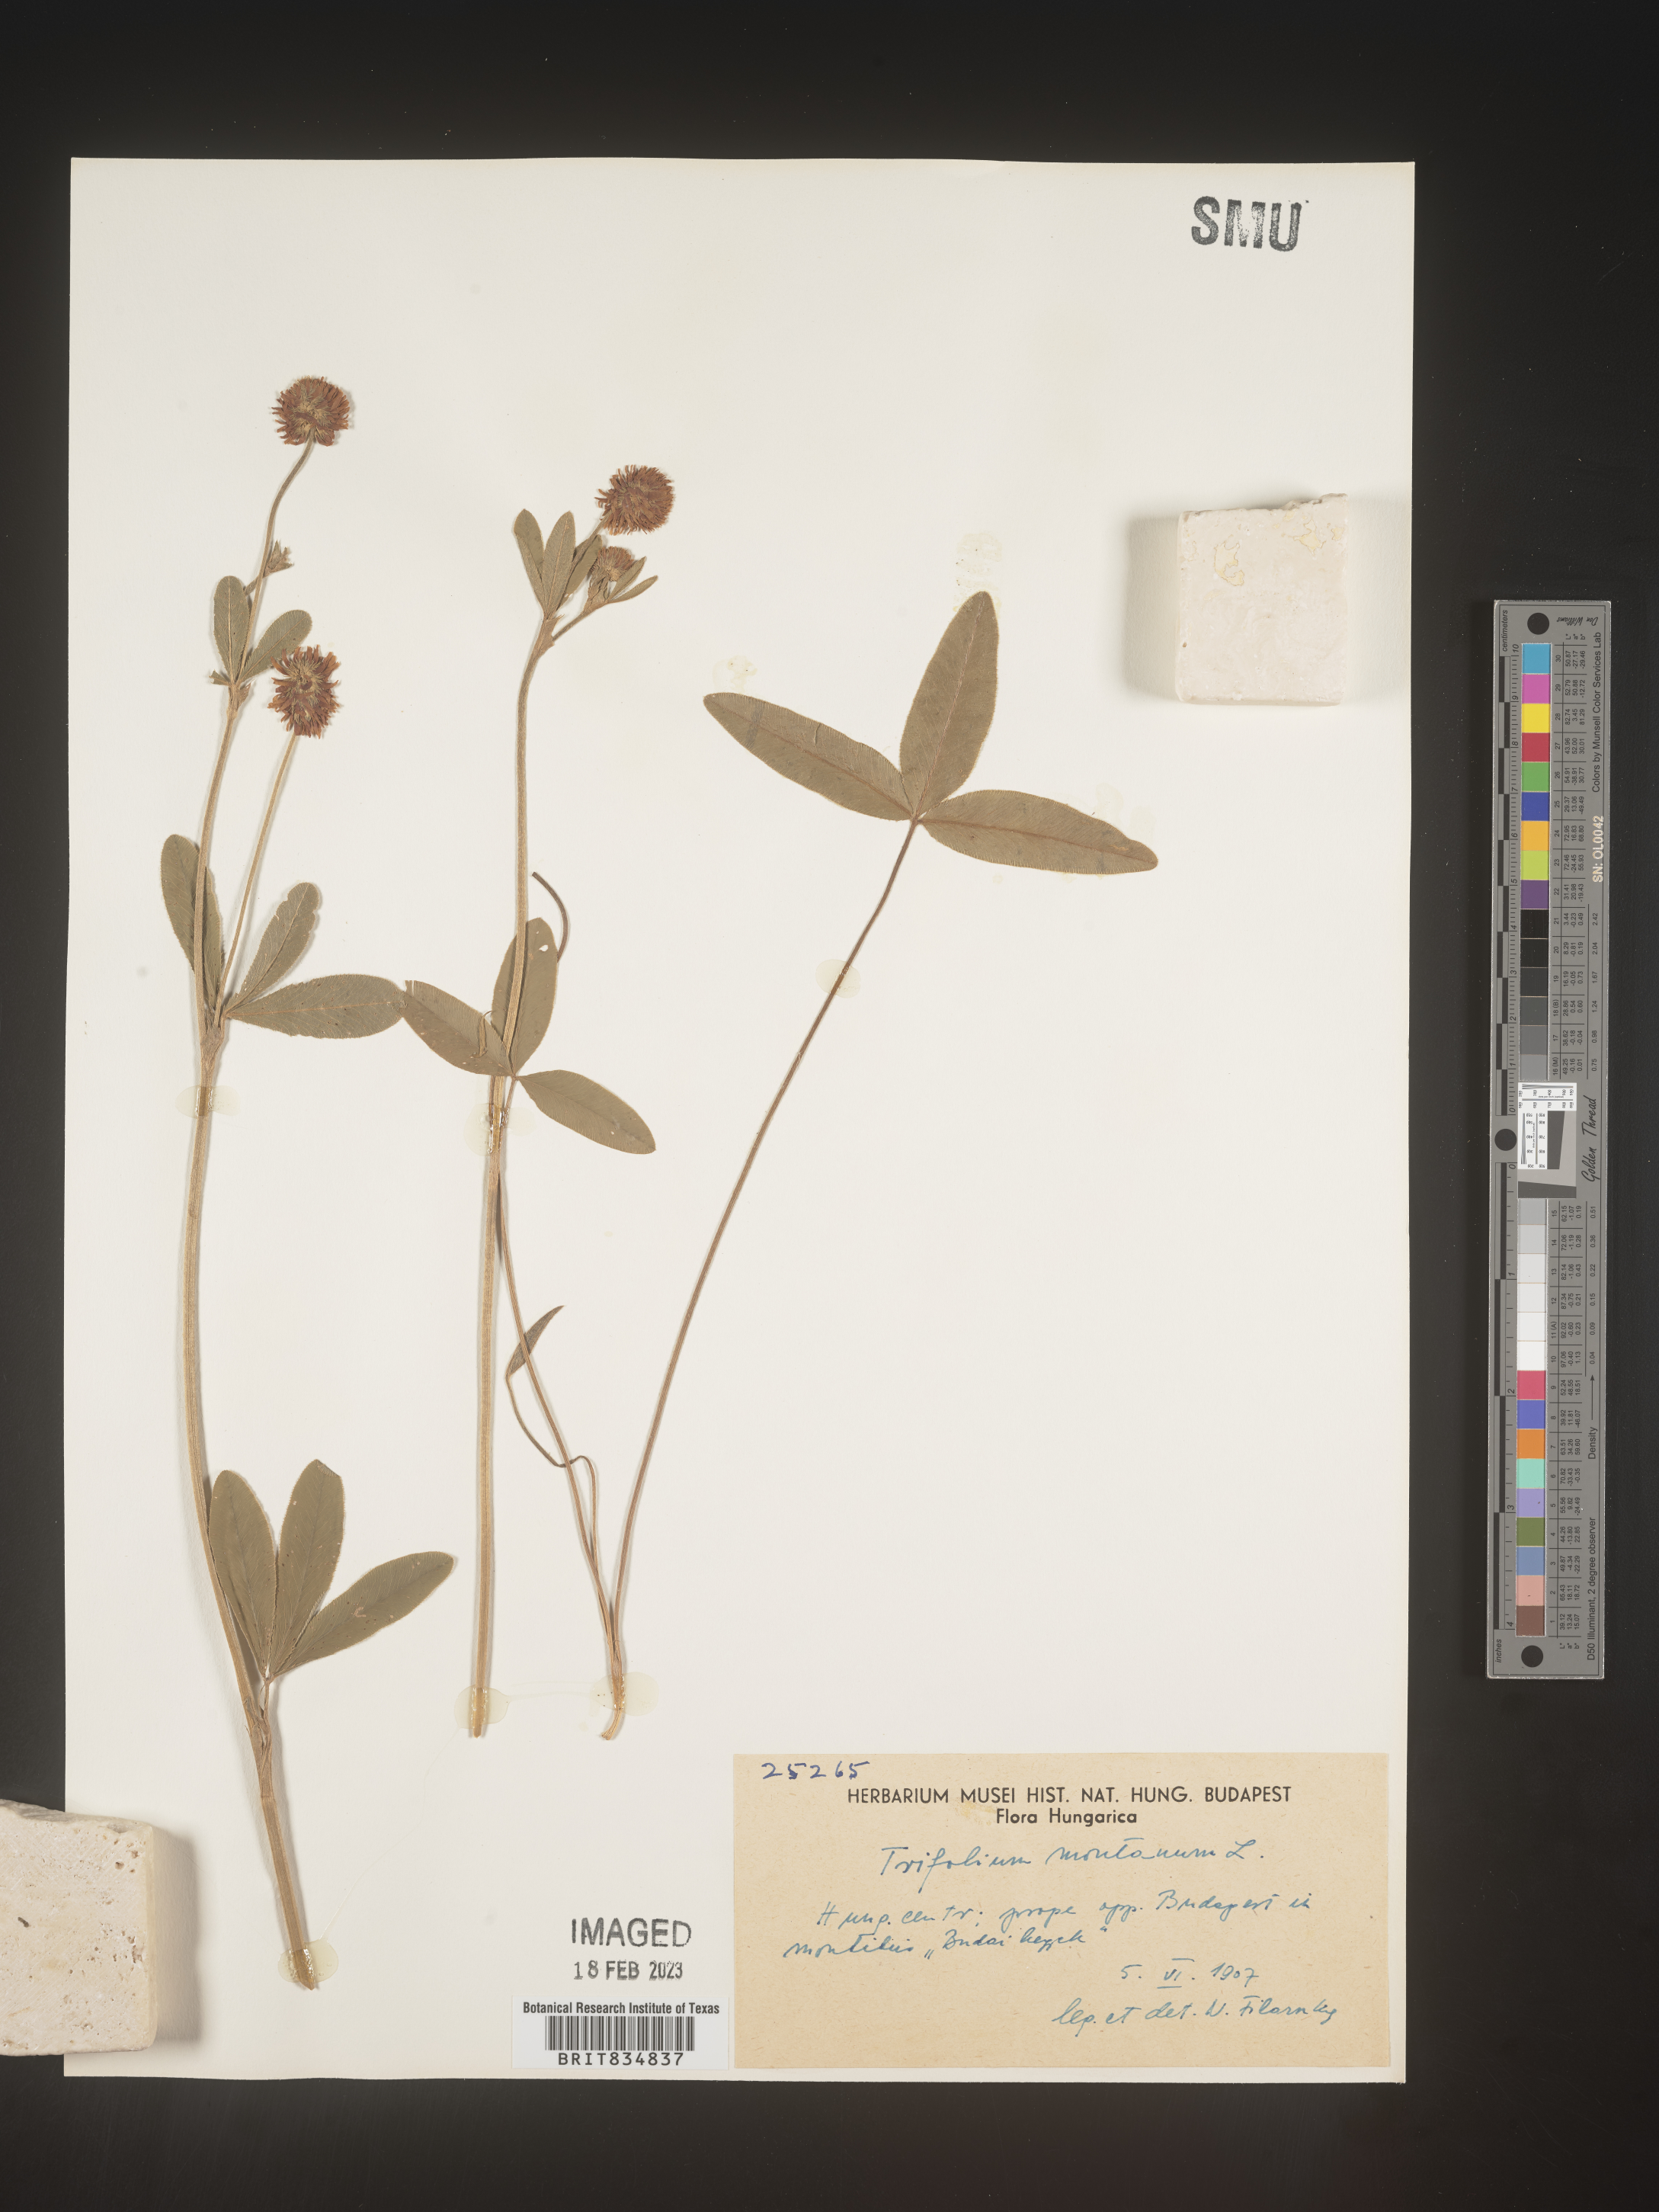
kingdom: Plantae
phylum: Tracheophyta
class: Magnoliopsida
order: Fabales
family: Fabaceae
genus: Trifolium
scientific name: Trifolium
